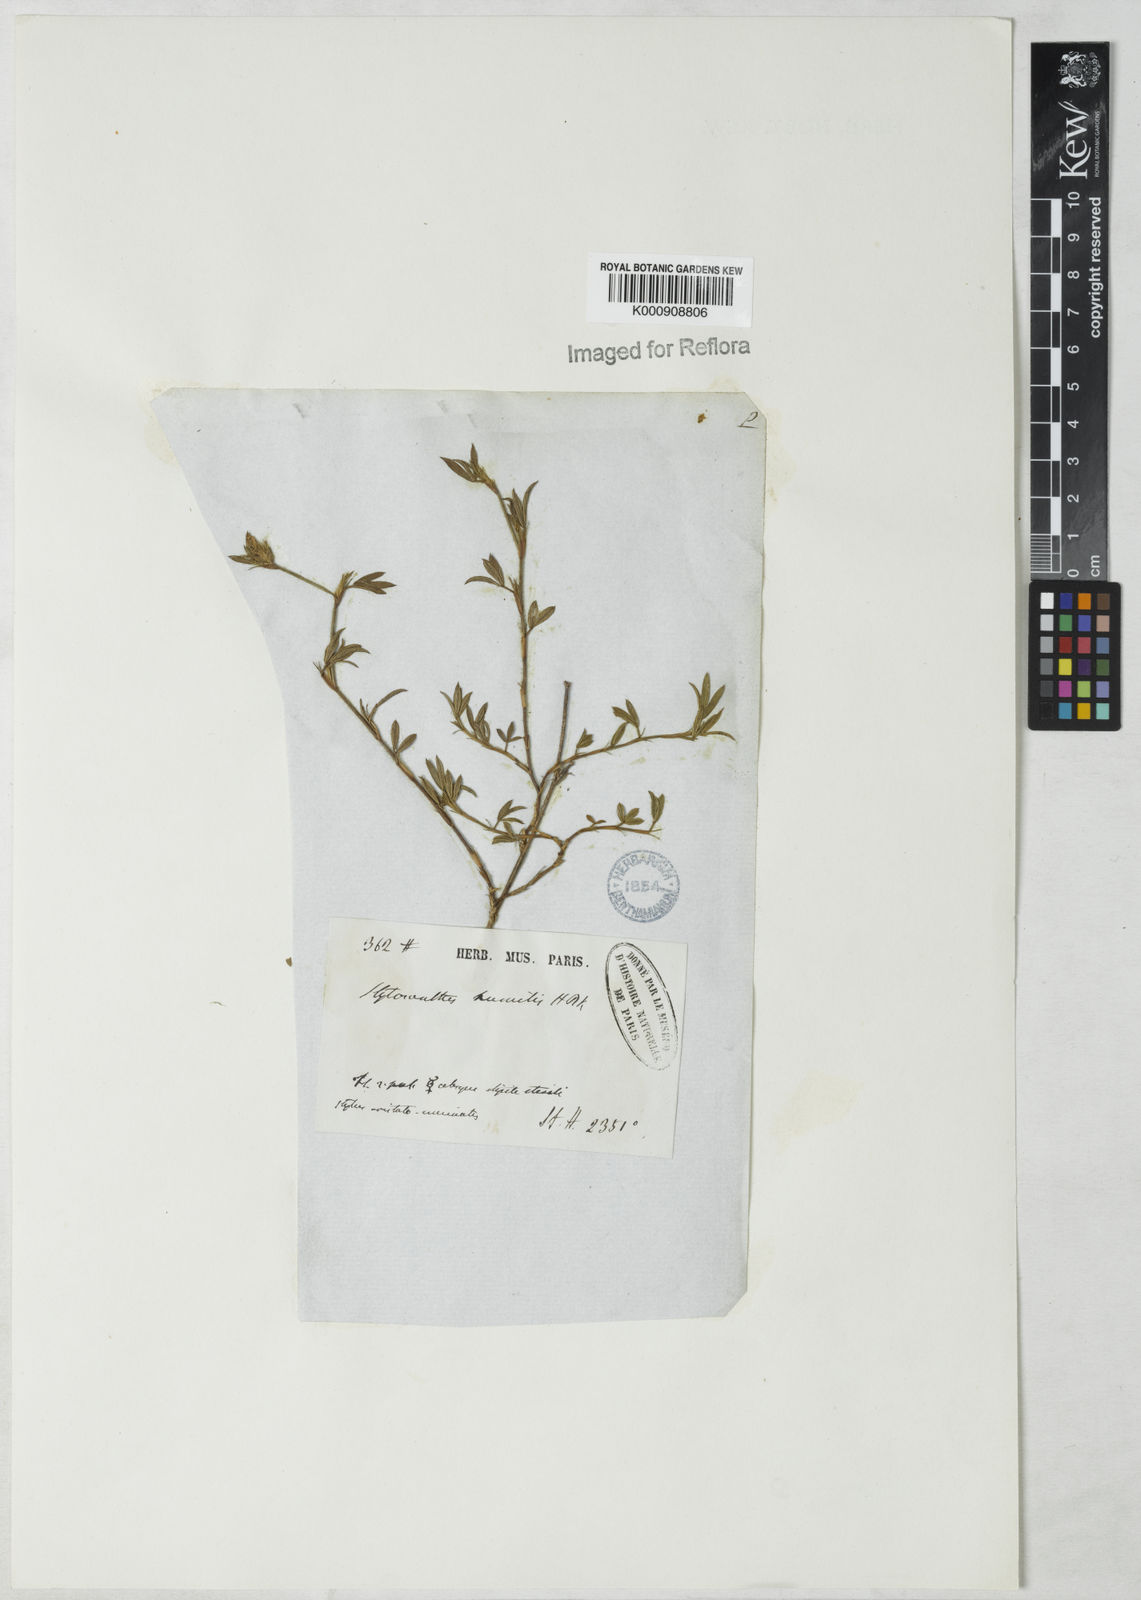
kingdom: Plantae
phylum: Tracheophyta
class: Magnoliopsida
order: Fabales
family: Fabaceae
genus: Stylosanthes
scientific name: Stylosanthes humilis
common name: Townsville stylo
